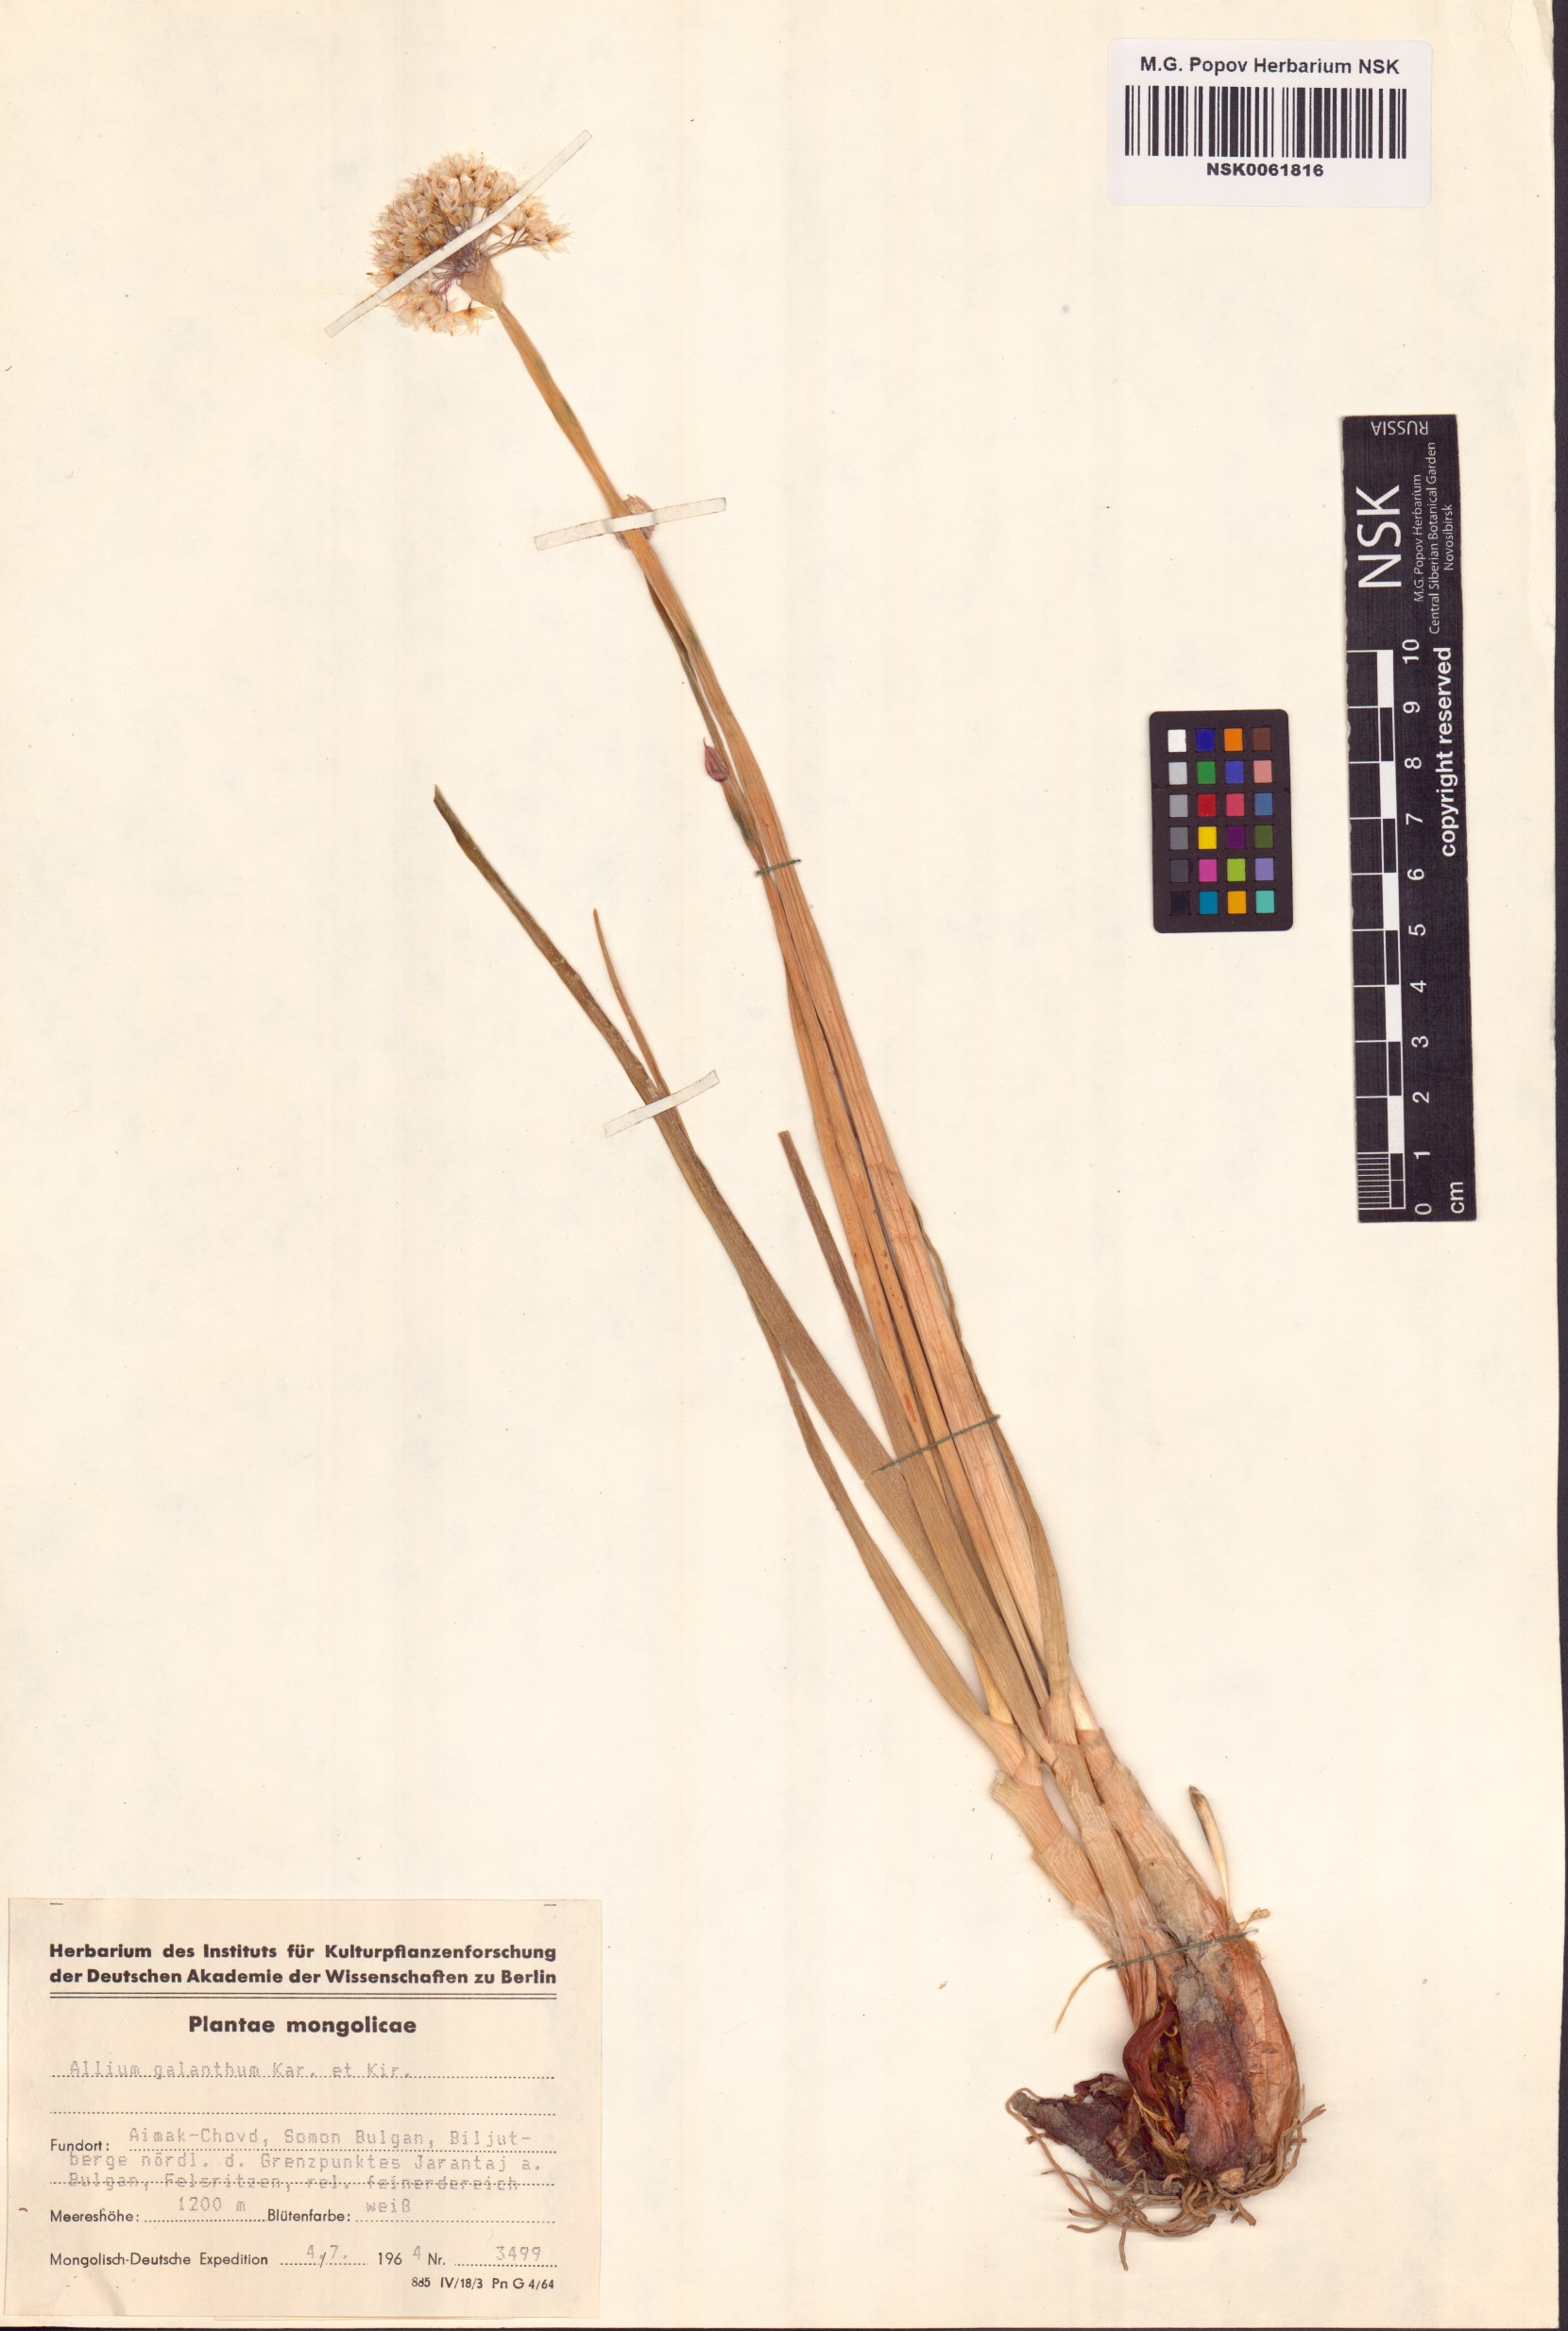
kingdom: Plantae
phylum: Tracheophyta
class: Liliopsida
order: Asparagales
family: Amaryllidaceae
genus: Allium
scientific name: Allium galanthum
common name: Snowdrop onion
